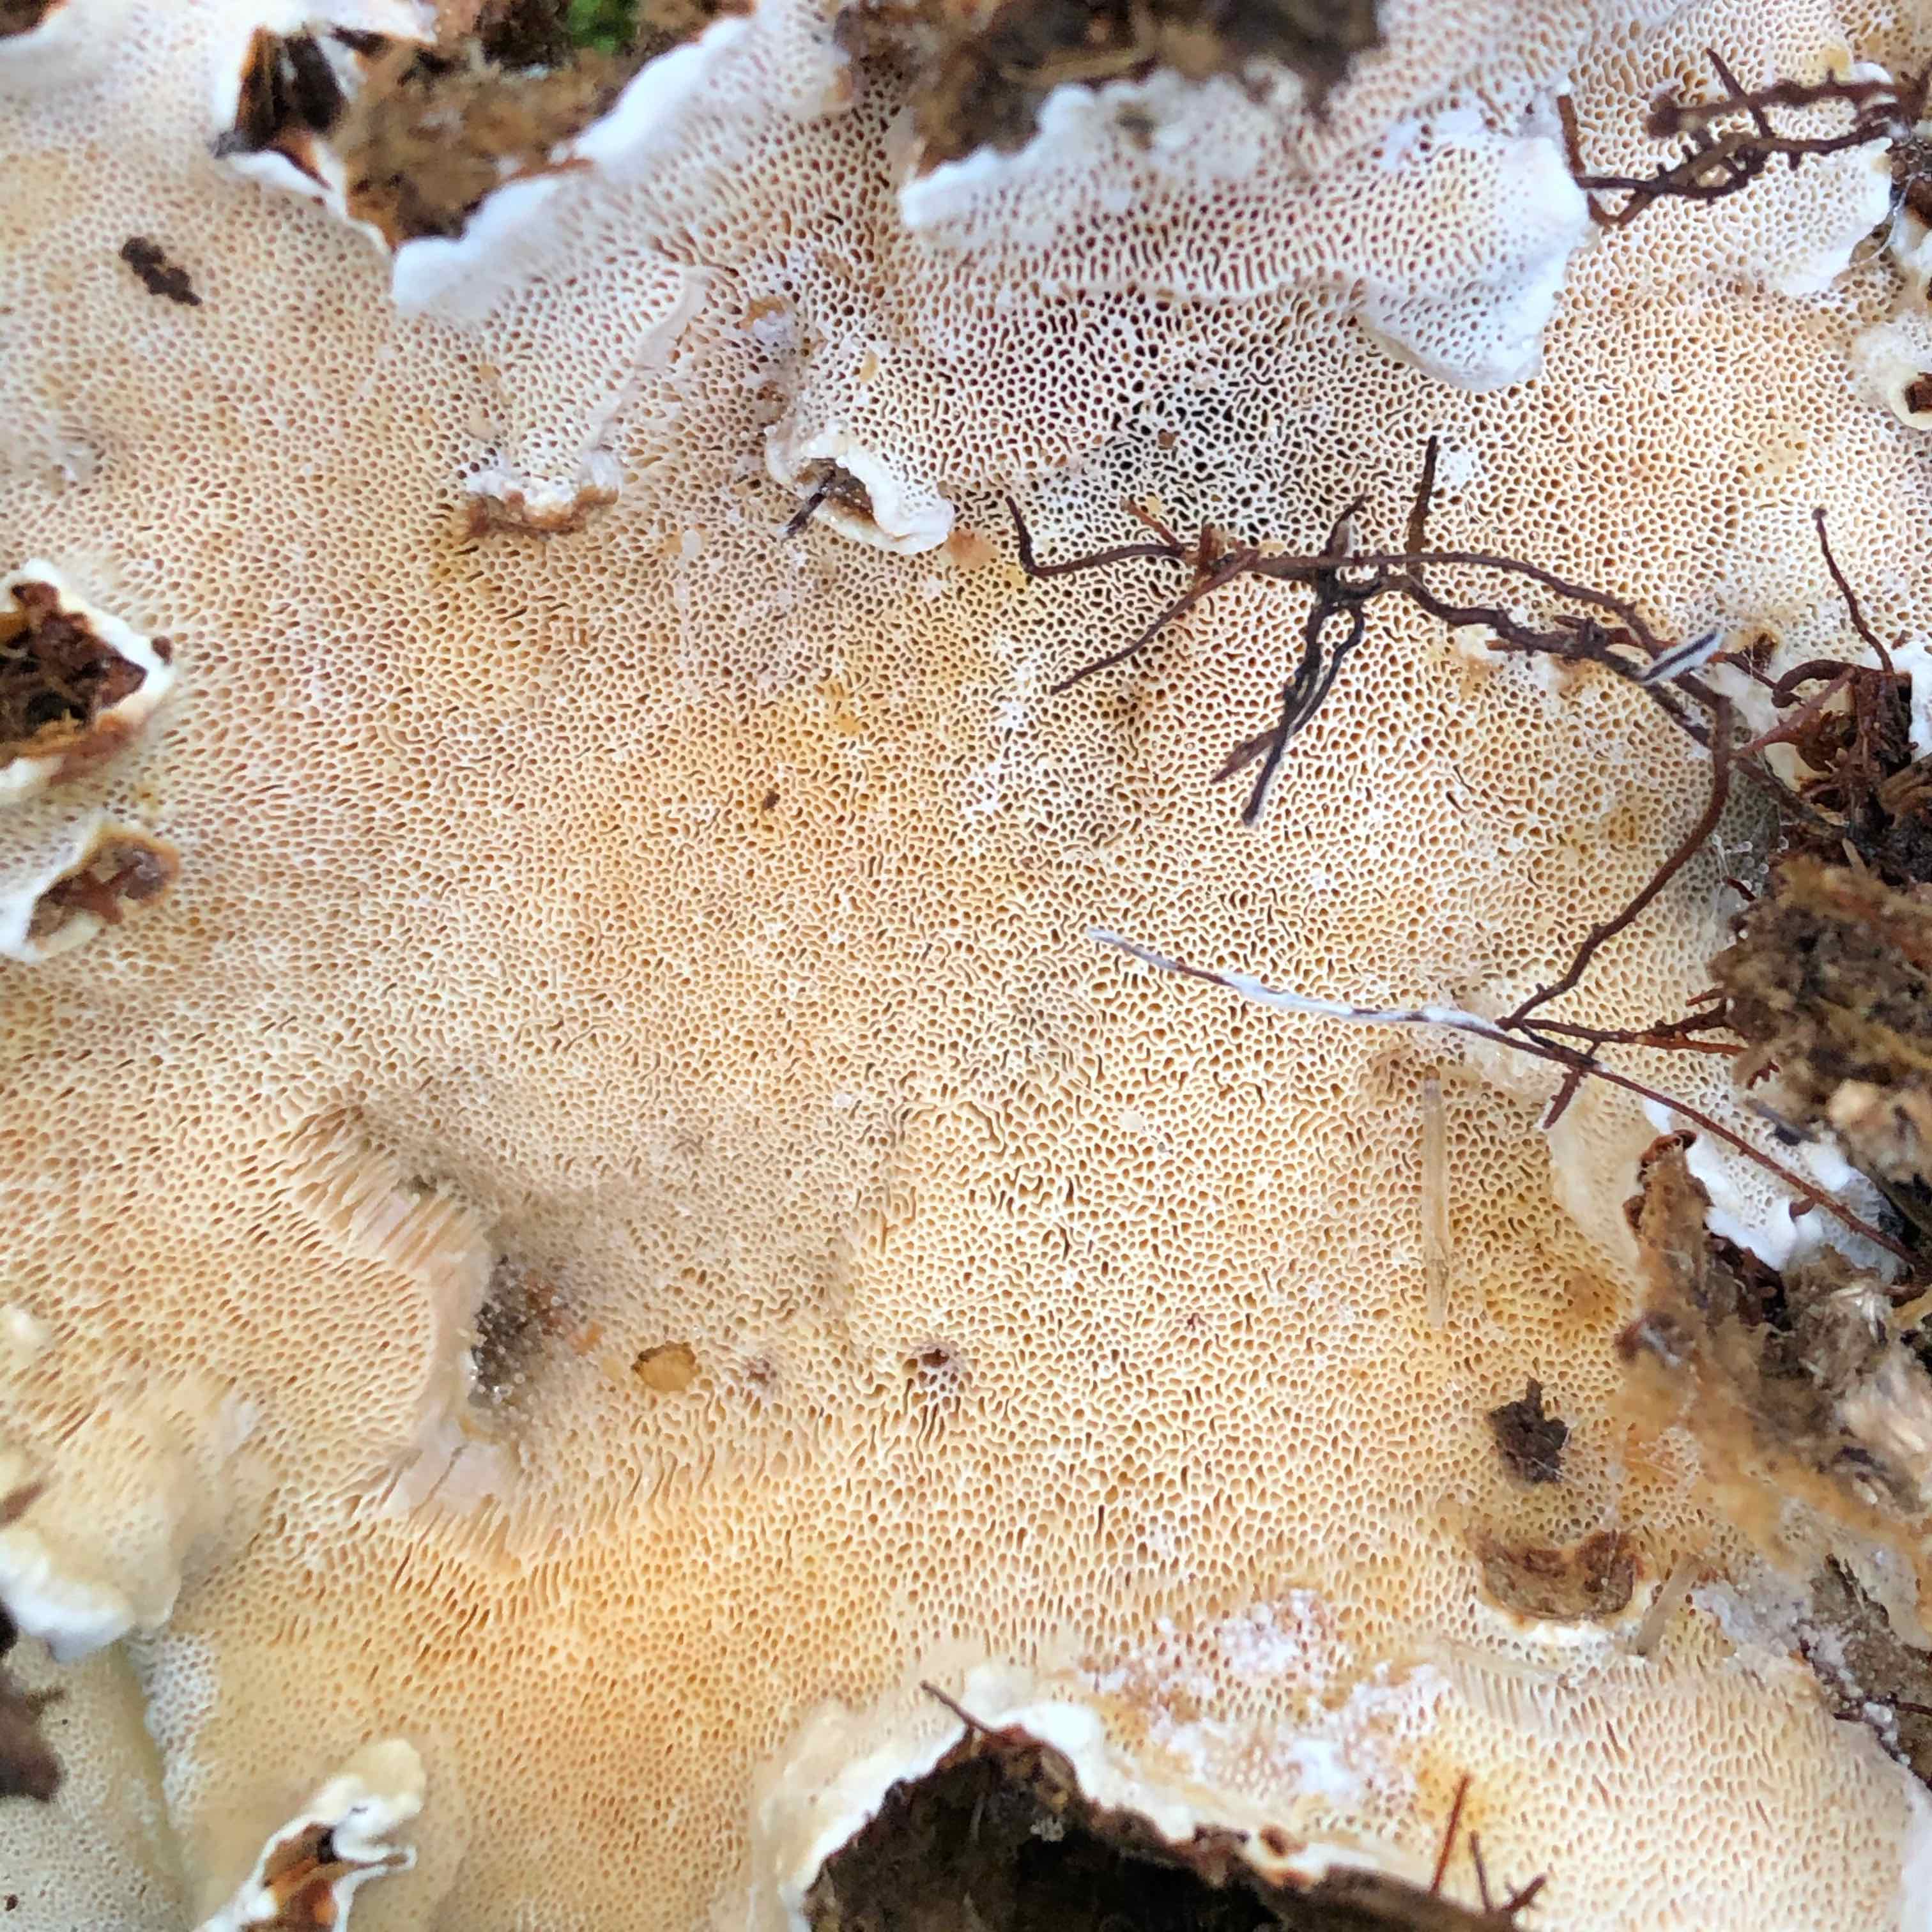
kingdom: Fungi
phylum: Basidiomycota
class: Agaricomycetes
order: Russulales
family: Bondarzewiaceae
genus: Heterobasidion
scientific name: Heterobasidion annosum
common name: almindelig rodfordærver
